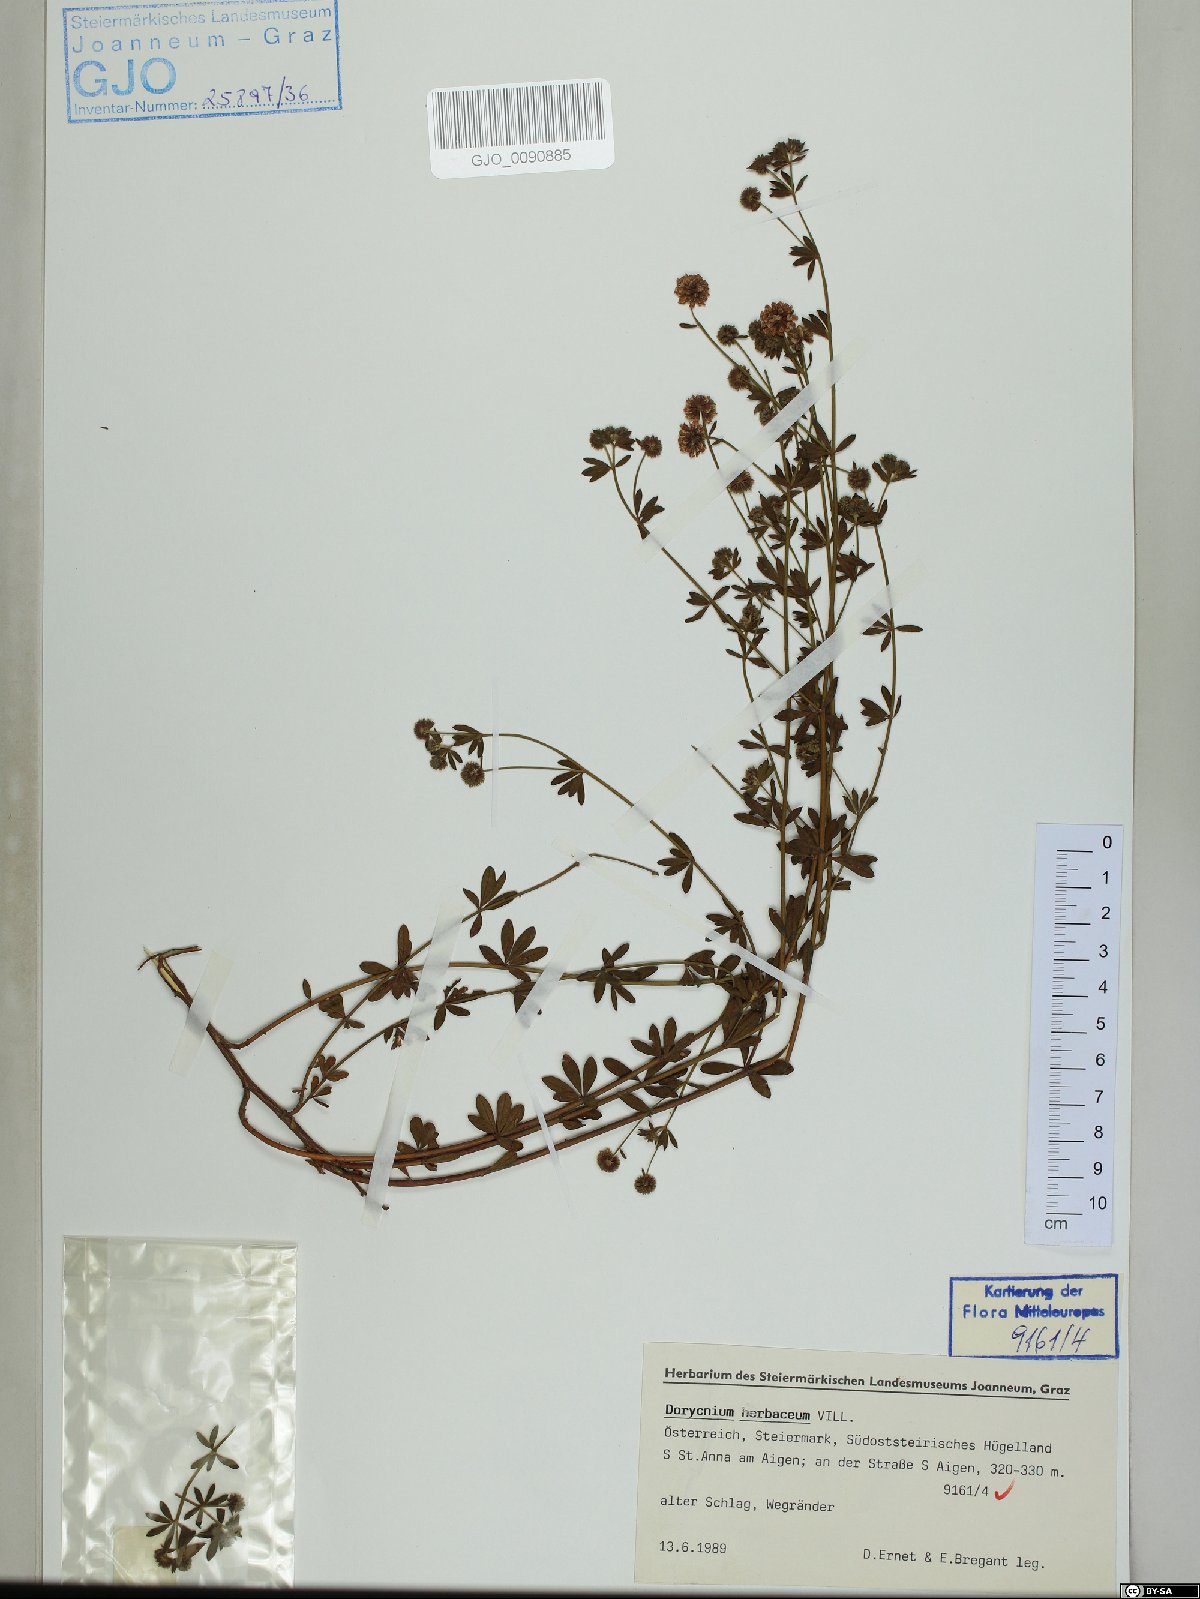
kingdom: Plantae
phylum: Tracheophyta
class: Magnoliopsida
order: Fabales
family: Fabaceae
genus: Lotus
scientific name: Lotus herbaceus
